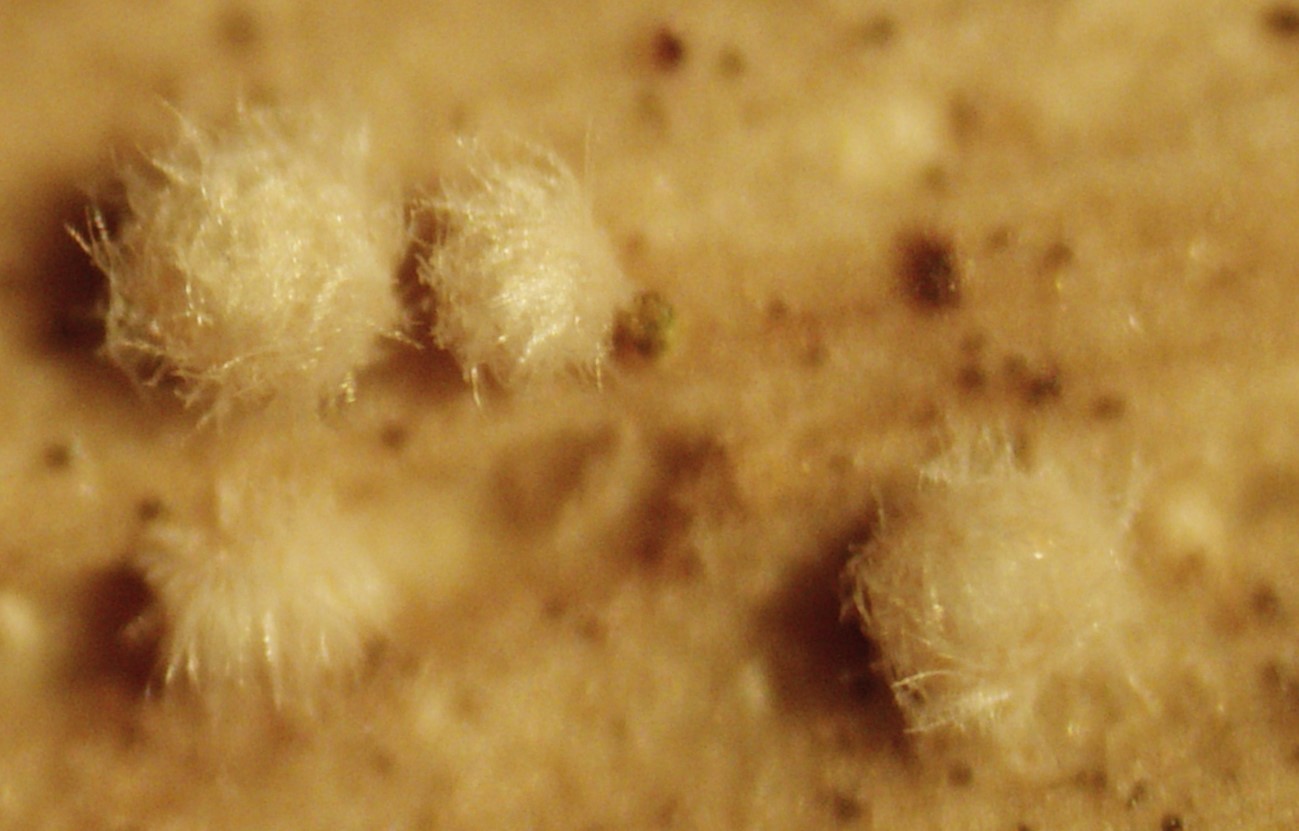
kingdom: Fungi
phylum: Ascomycota
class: Leotiomycetes
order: Helotiales
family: Lachnaceae
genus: Lachnum
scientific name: Lachnum virgineum
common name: jomfru-frynseskive
